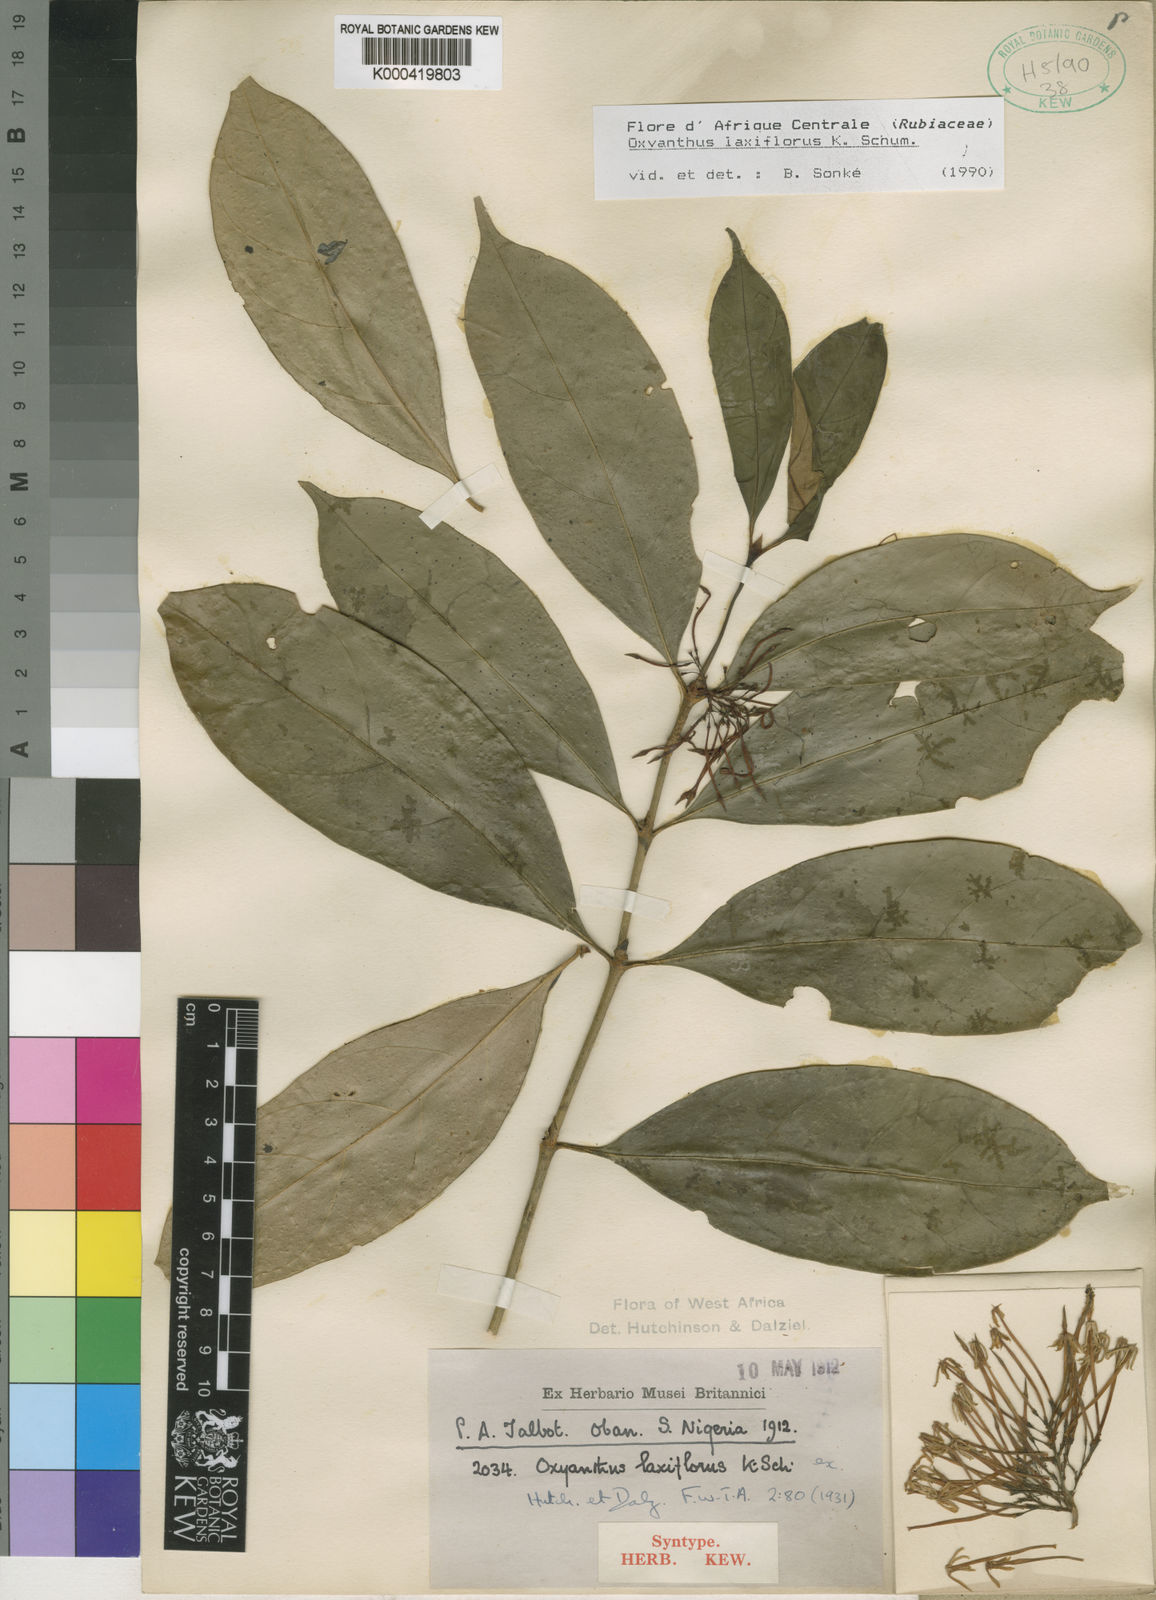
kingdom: Plantae
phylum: Tracheophyta
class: Magnoliopsida
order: Gentianales
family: Rubiaceae
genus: Oxyanthus
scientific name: Oxyanthus laxiflorus
